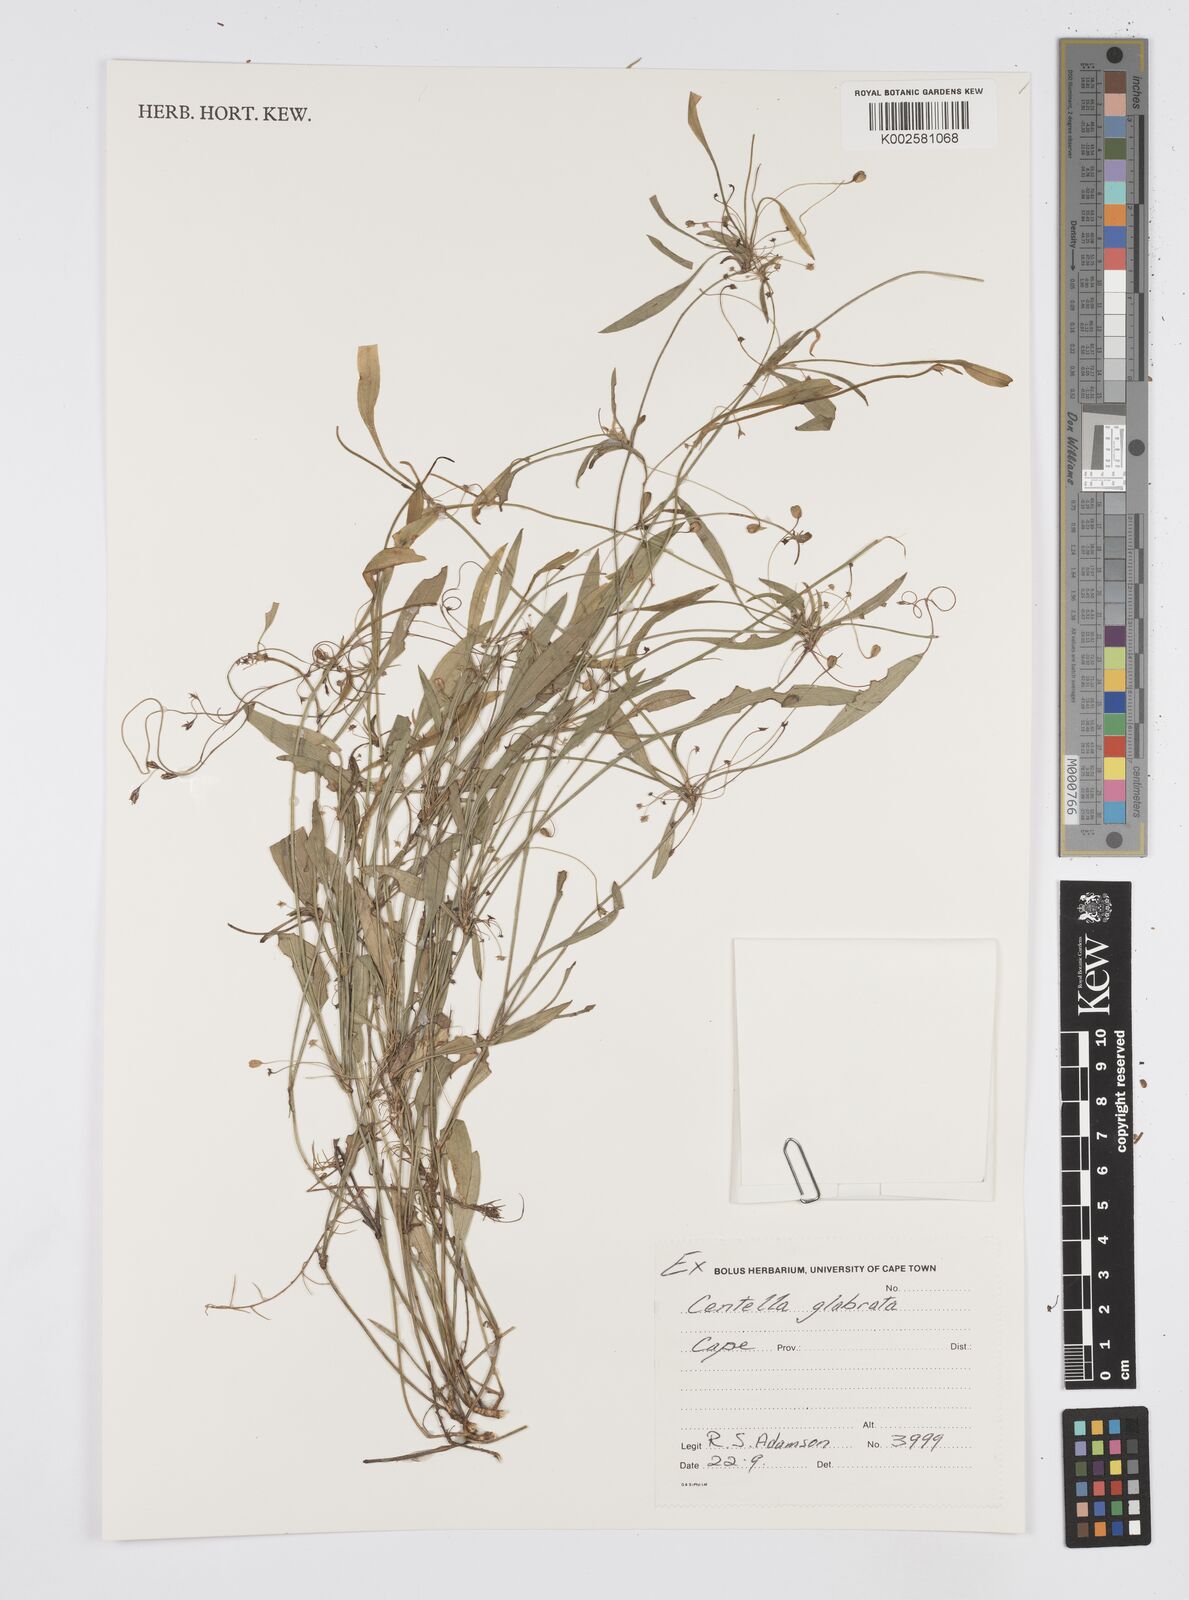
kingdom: Plantae
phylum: Tracheophyta
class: Magnoliopsida
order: Apiales
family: Apiaceae
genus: Centella
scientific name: Centella glabrata
